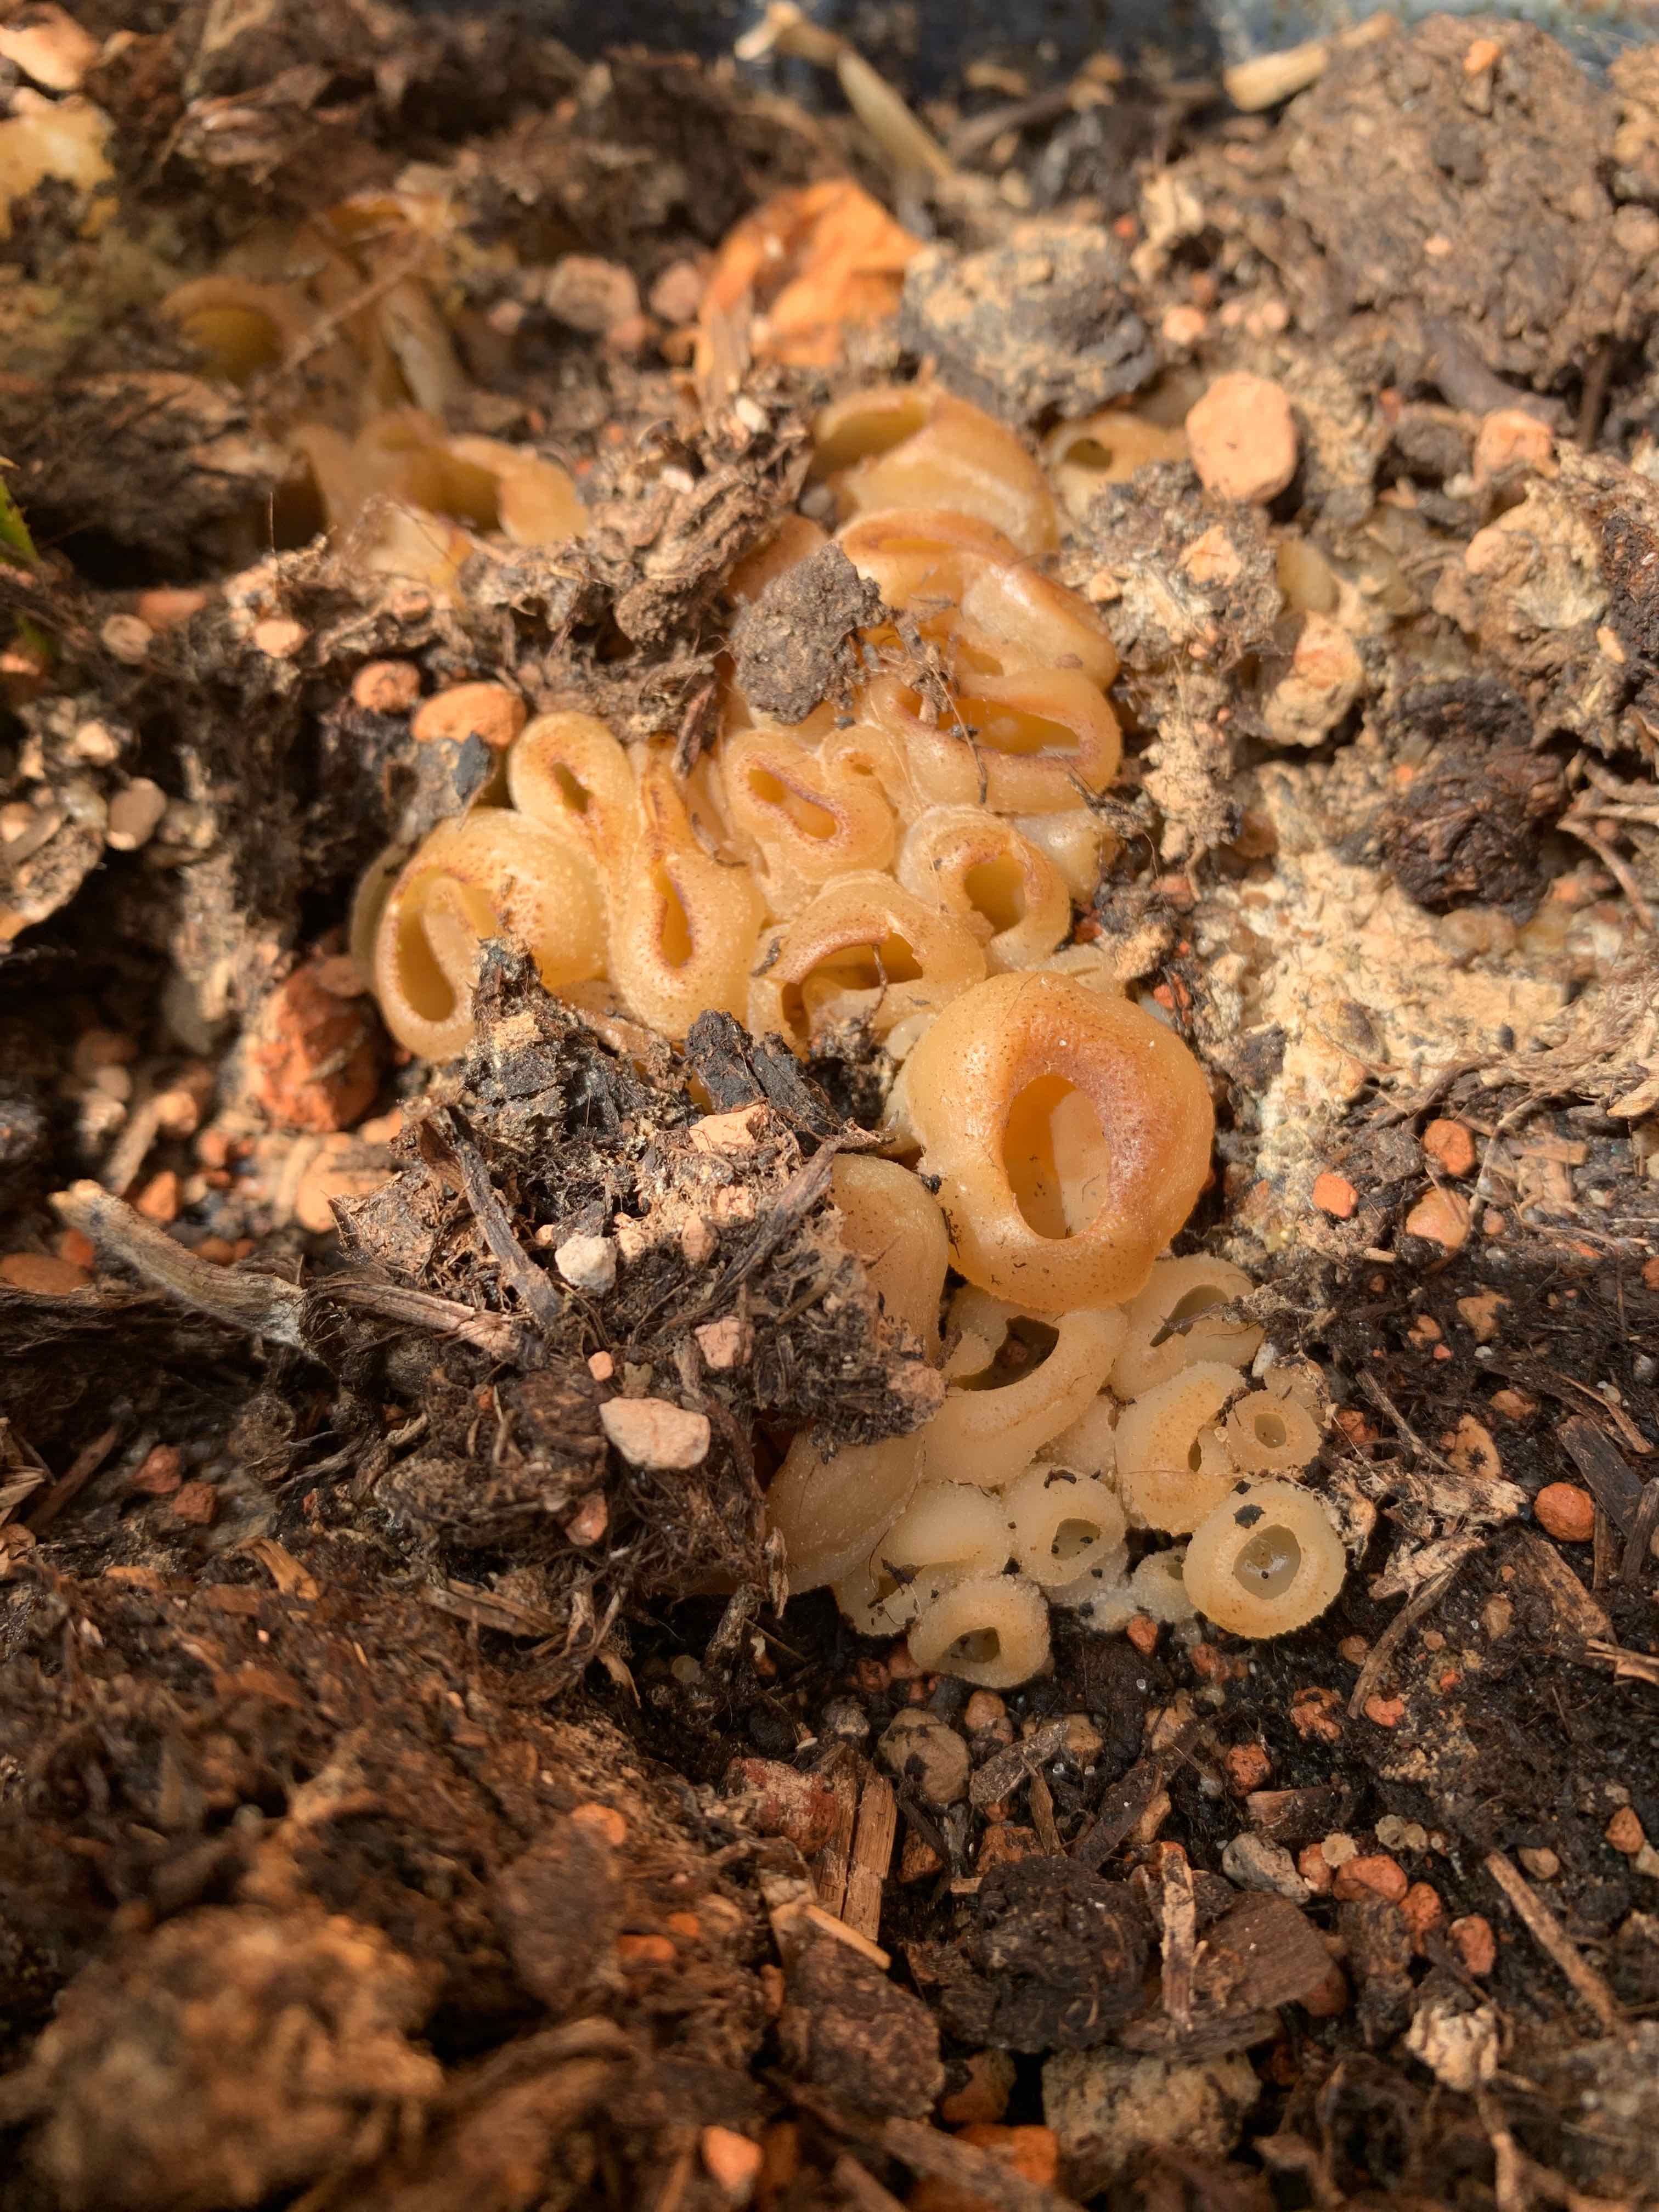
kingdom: Fungi
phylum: Ascomycota
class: Pezizomycetes
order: Pezizales
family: Pezizaceae
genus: Peziza
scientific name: Peziza vesiculosa
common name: blære-bægersvamp
